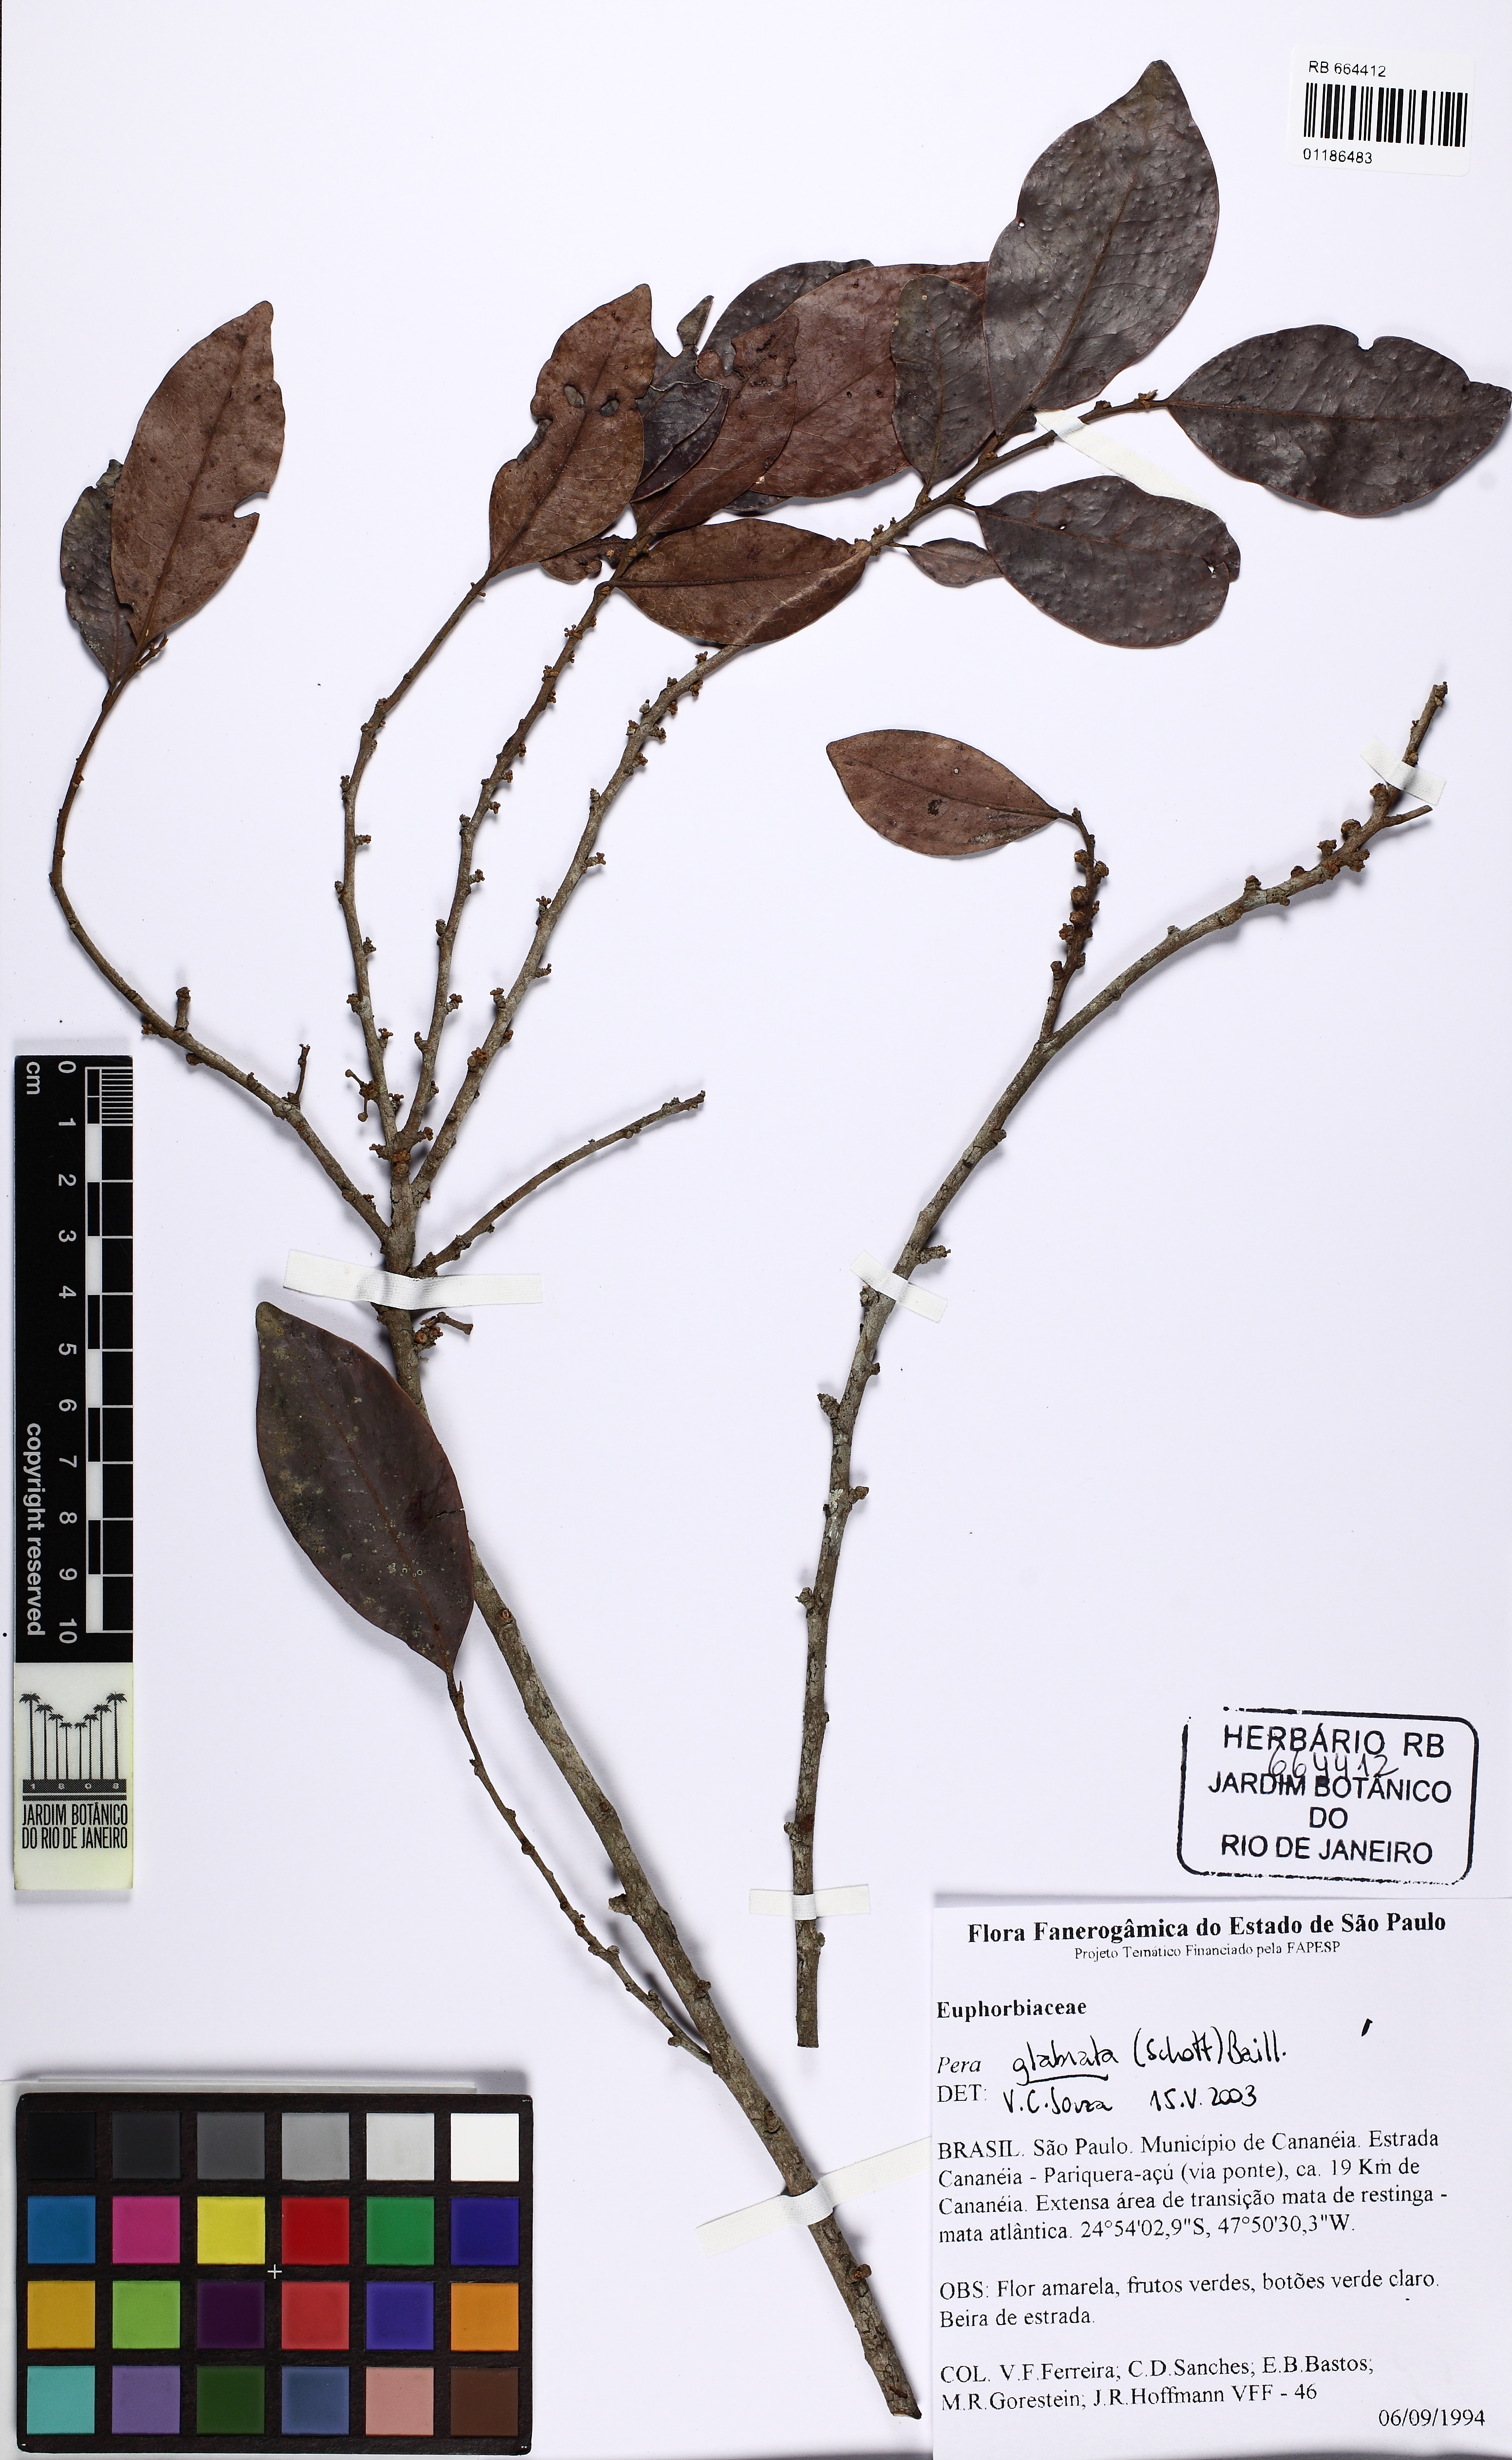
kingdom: Plantae
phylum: Tracheophyta
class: Magnoliopsida
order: Malpighiales
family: Peraceae
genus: Pera
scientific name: Pera glabrata
